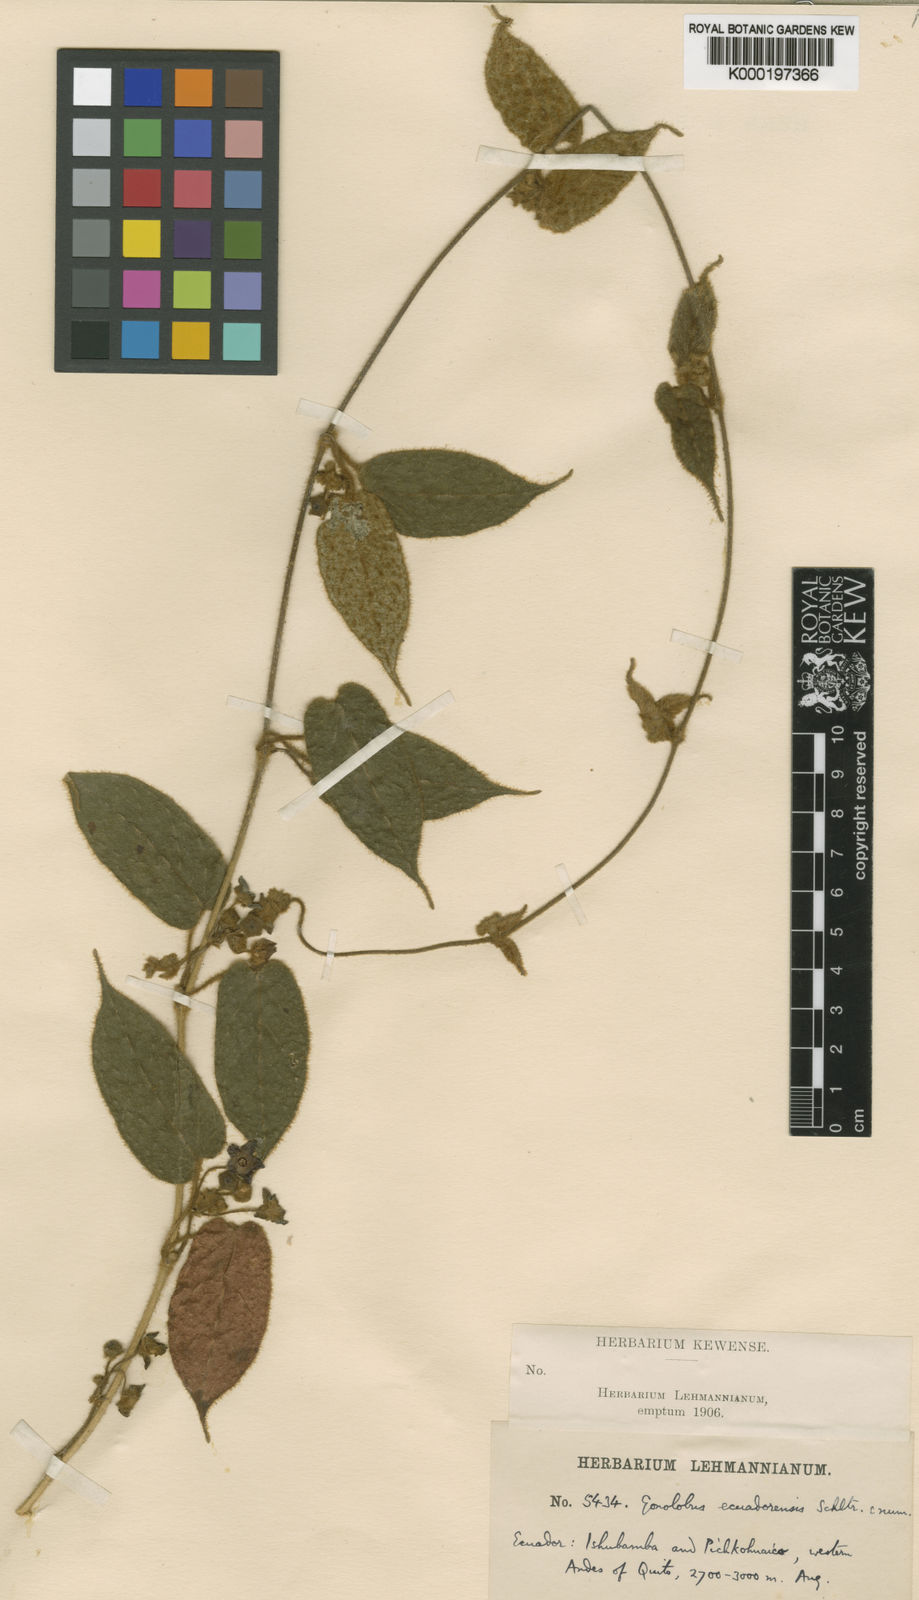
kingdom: Plantae
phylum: Tracheophyta
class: Magnoliopsida
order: Gentianales
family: Apocynaceae
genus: Matelea
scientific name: Matelea ecuadorensis
